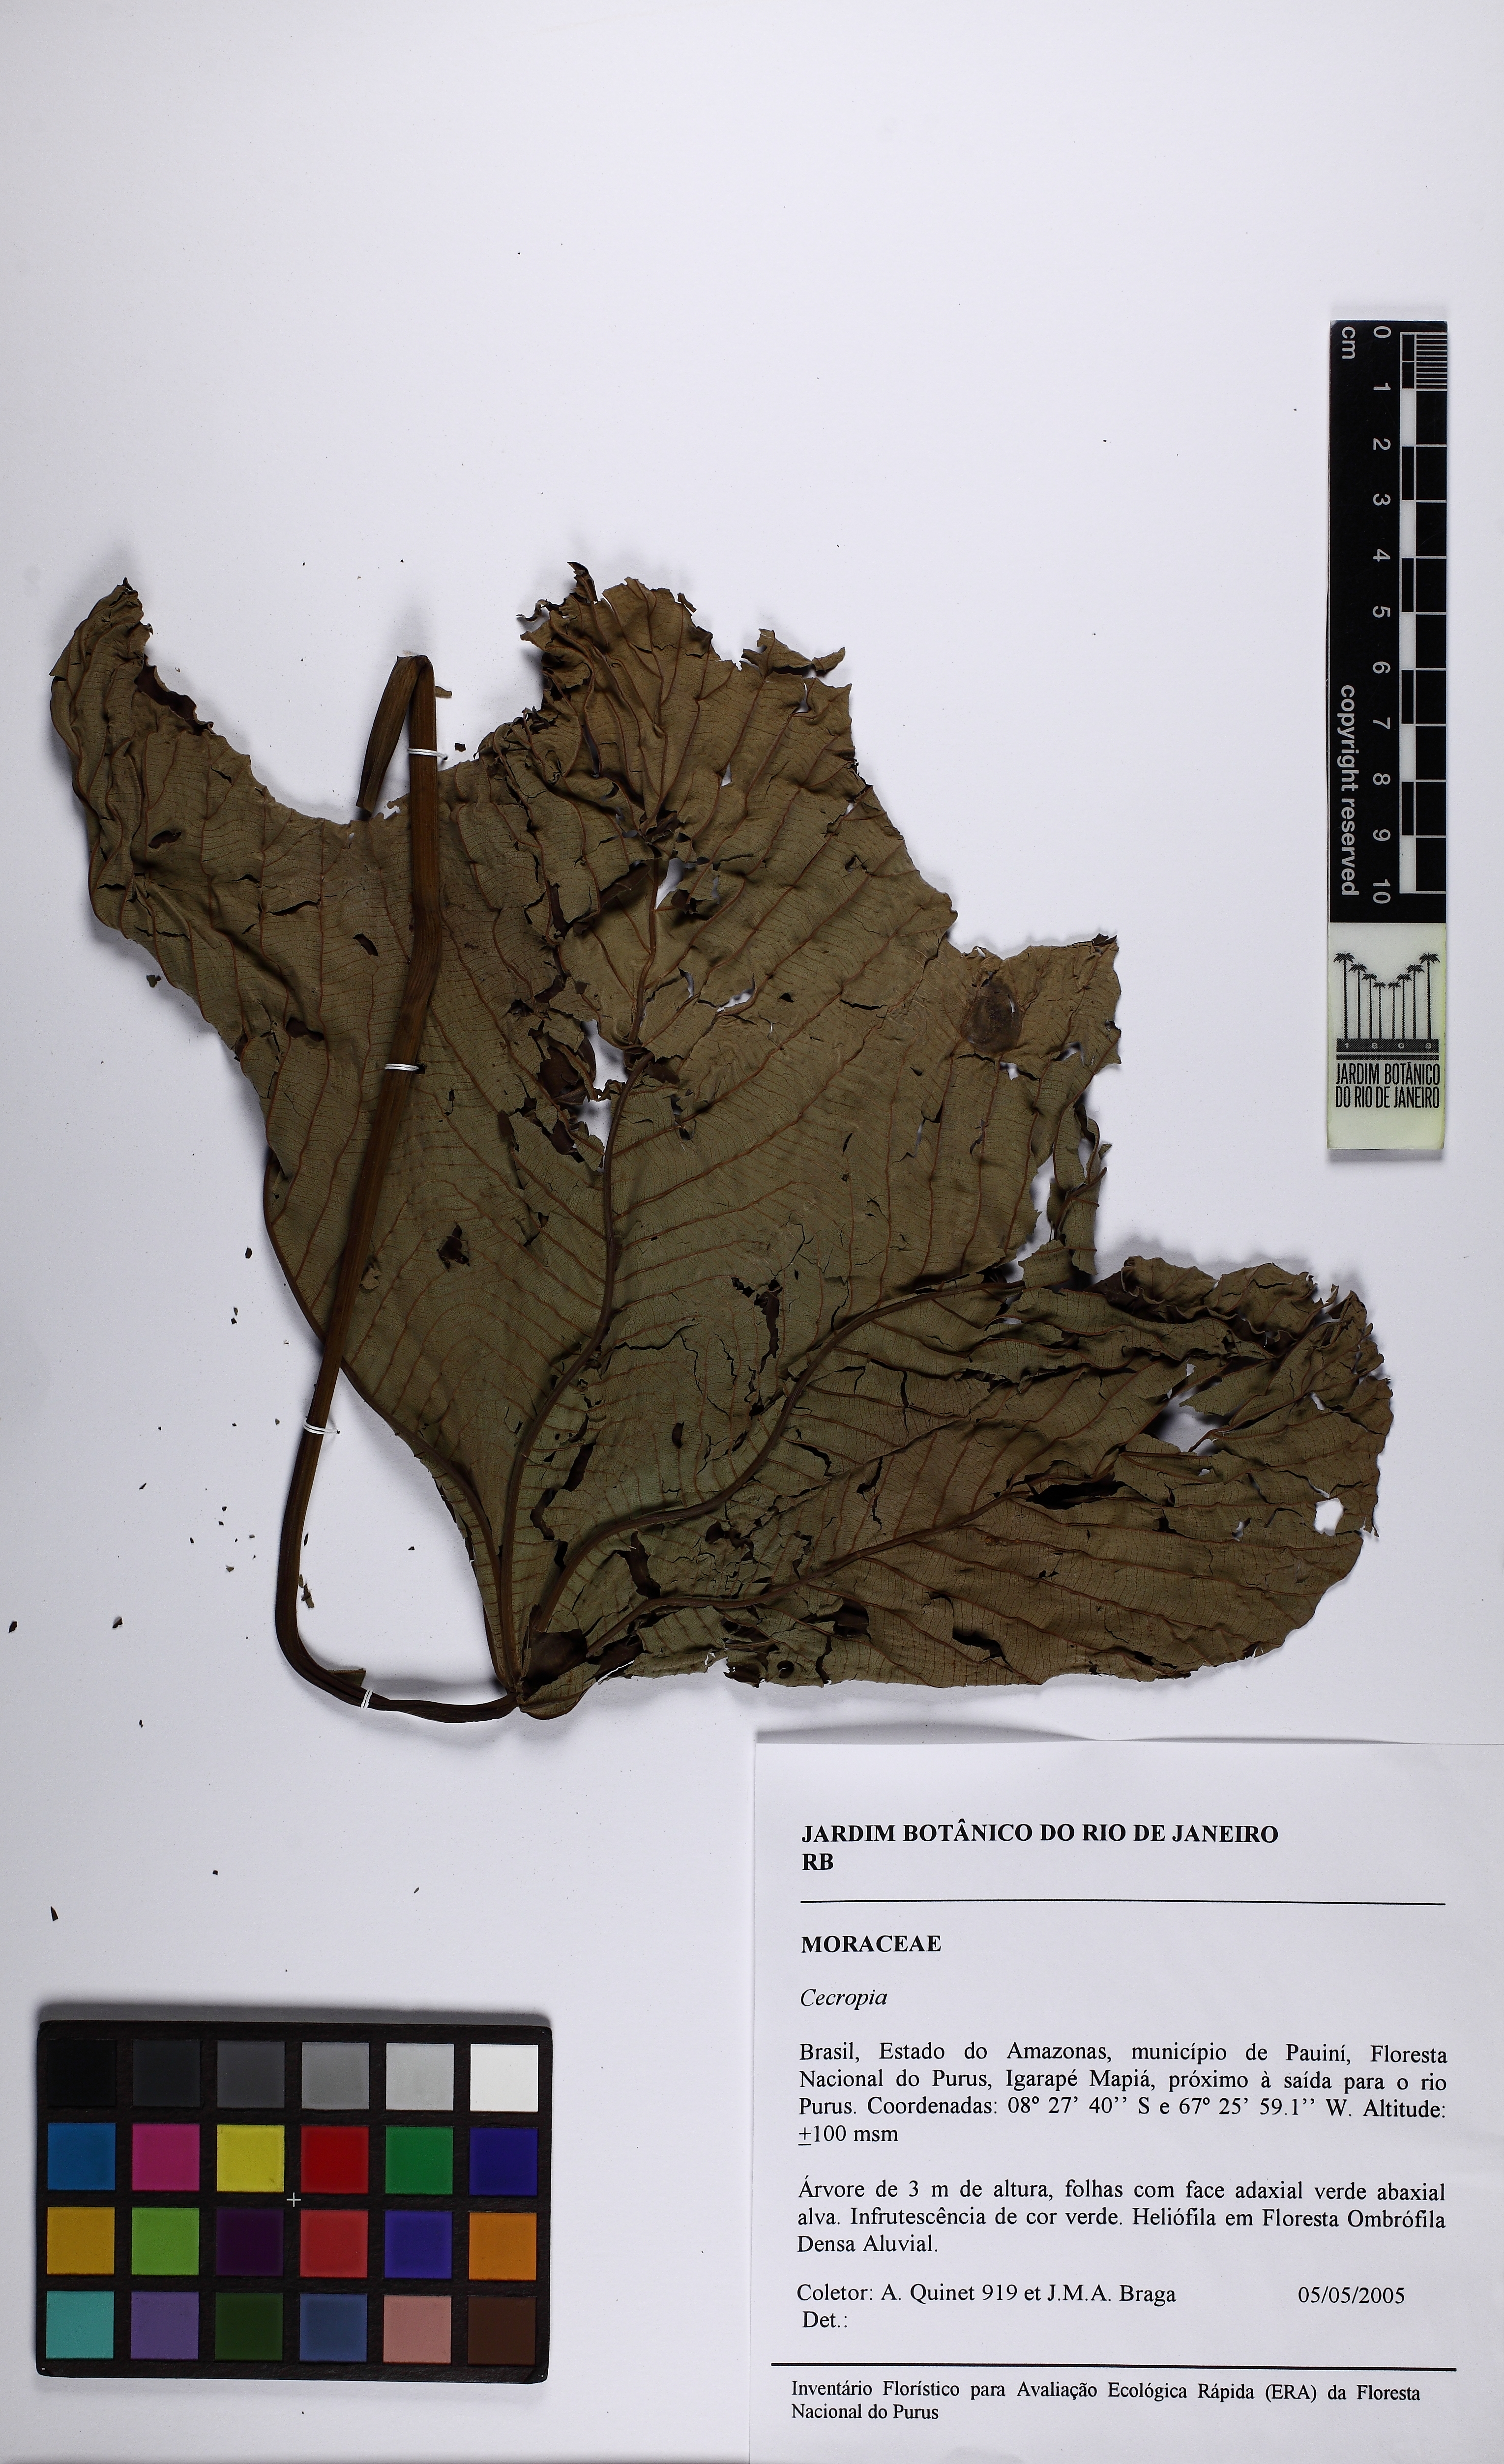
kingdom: Plantae
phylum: Tracheophyta
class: Magnoliopsida
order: Rosales
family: Urticaceae
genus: Cecropia
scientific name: Cecropia latiloba
